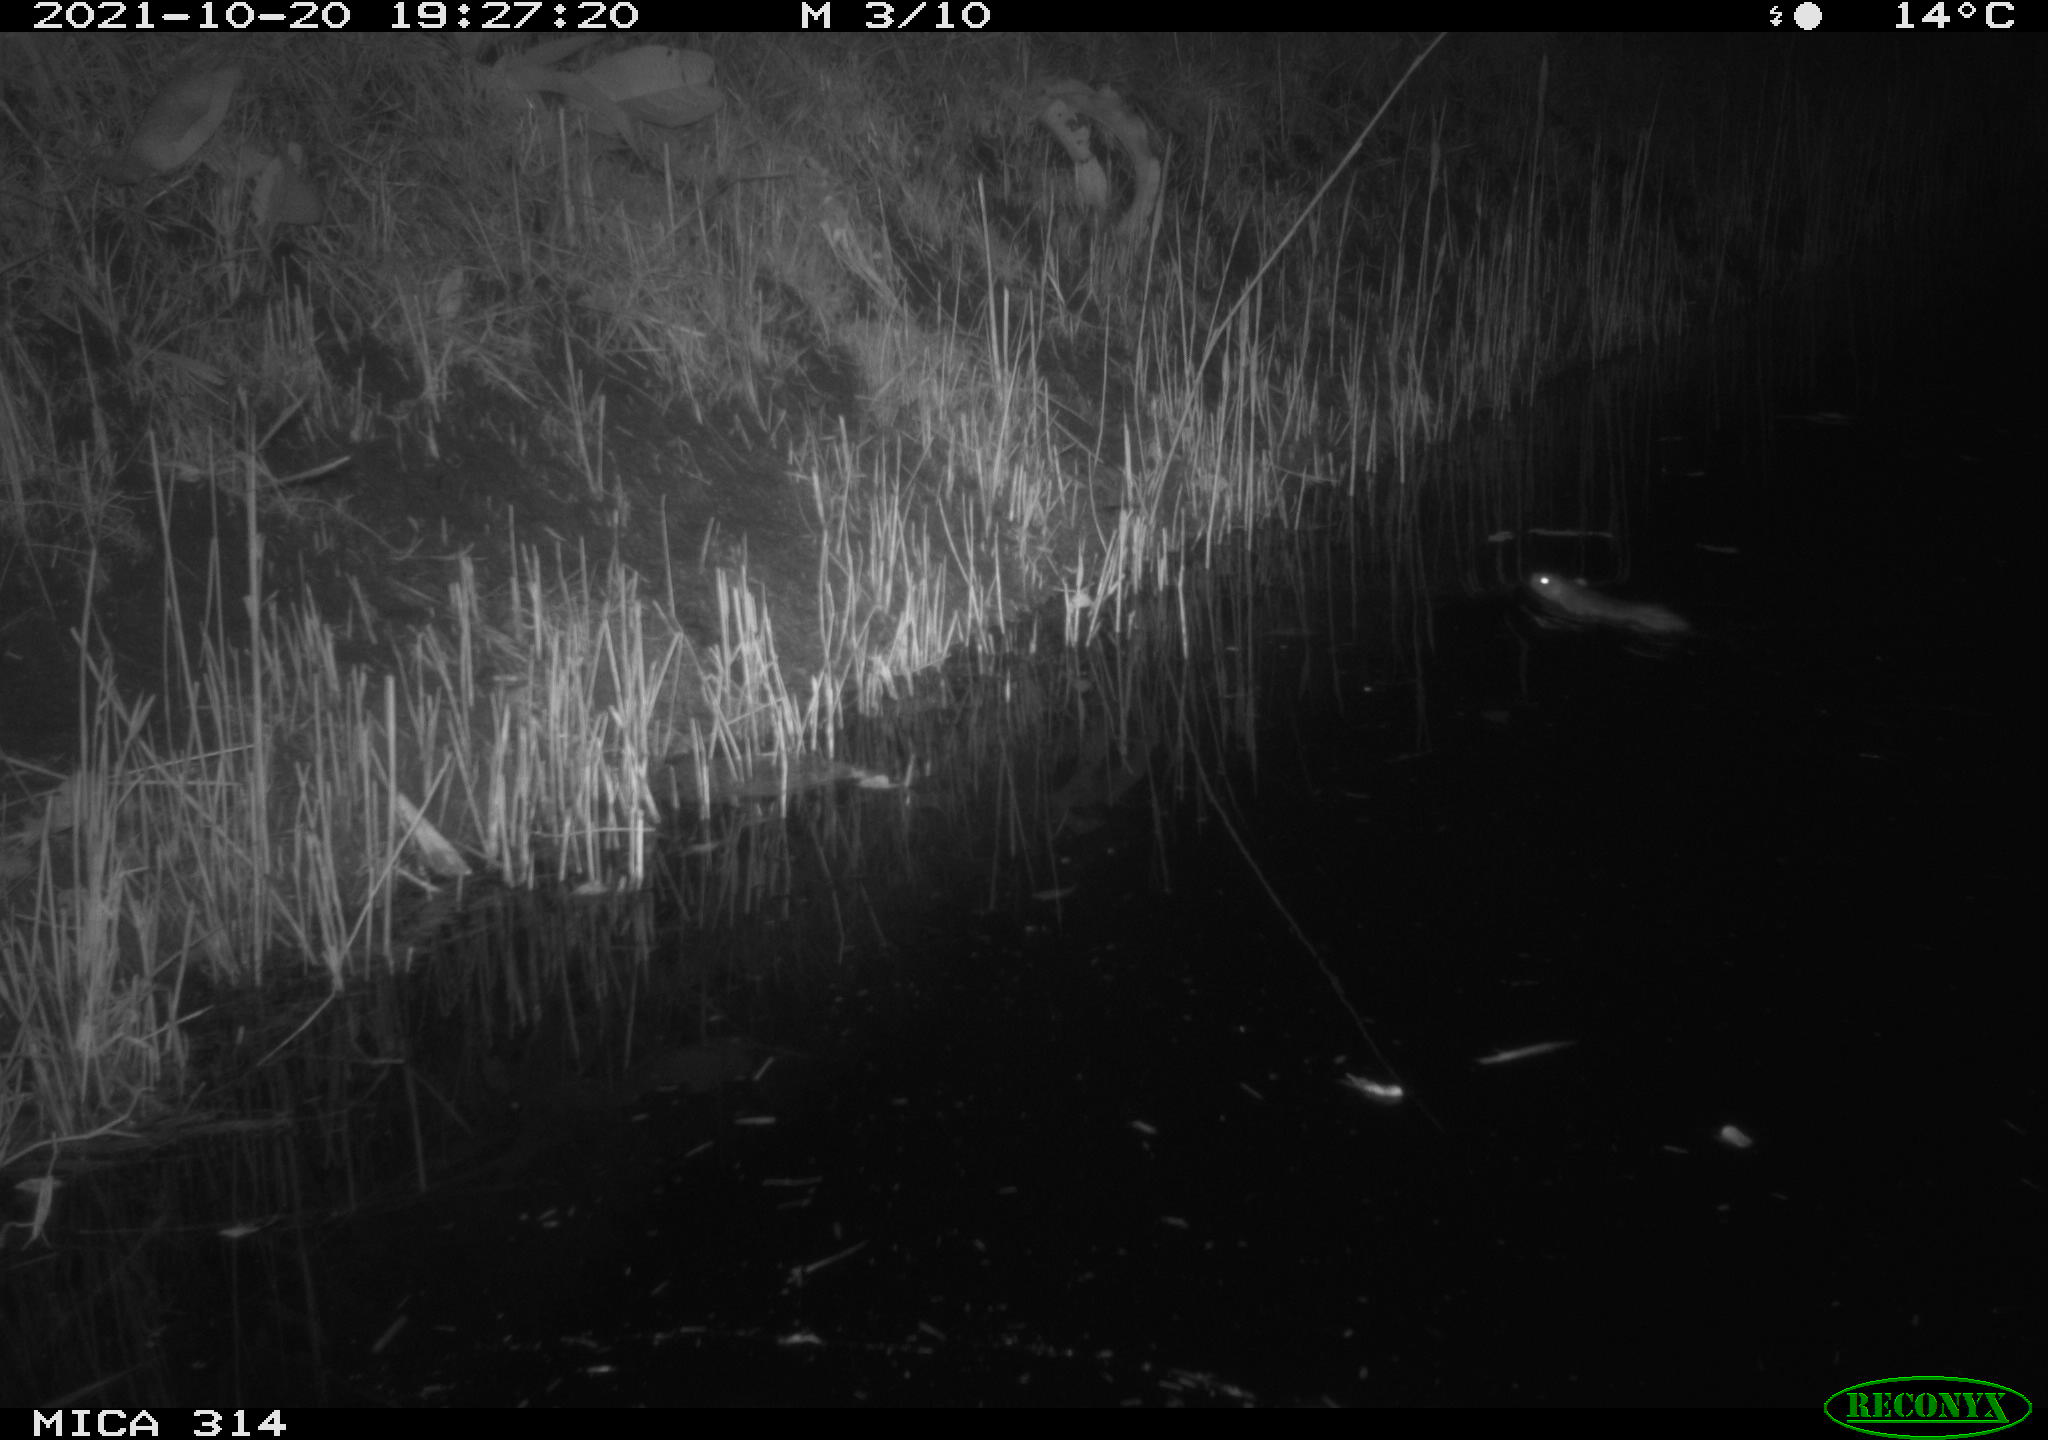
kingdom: Animalia
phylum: Chordata
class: Mammalia
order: Rodentia
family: Muridae
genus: Rattus
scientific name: Rattus norvegicus
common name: Brown rat
